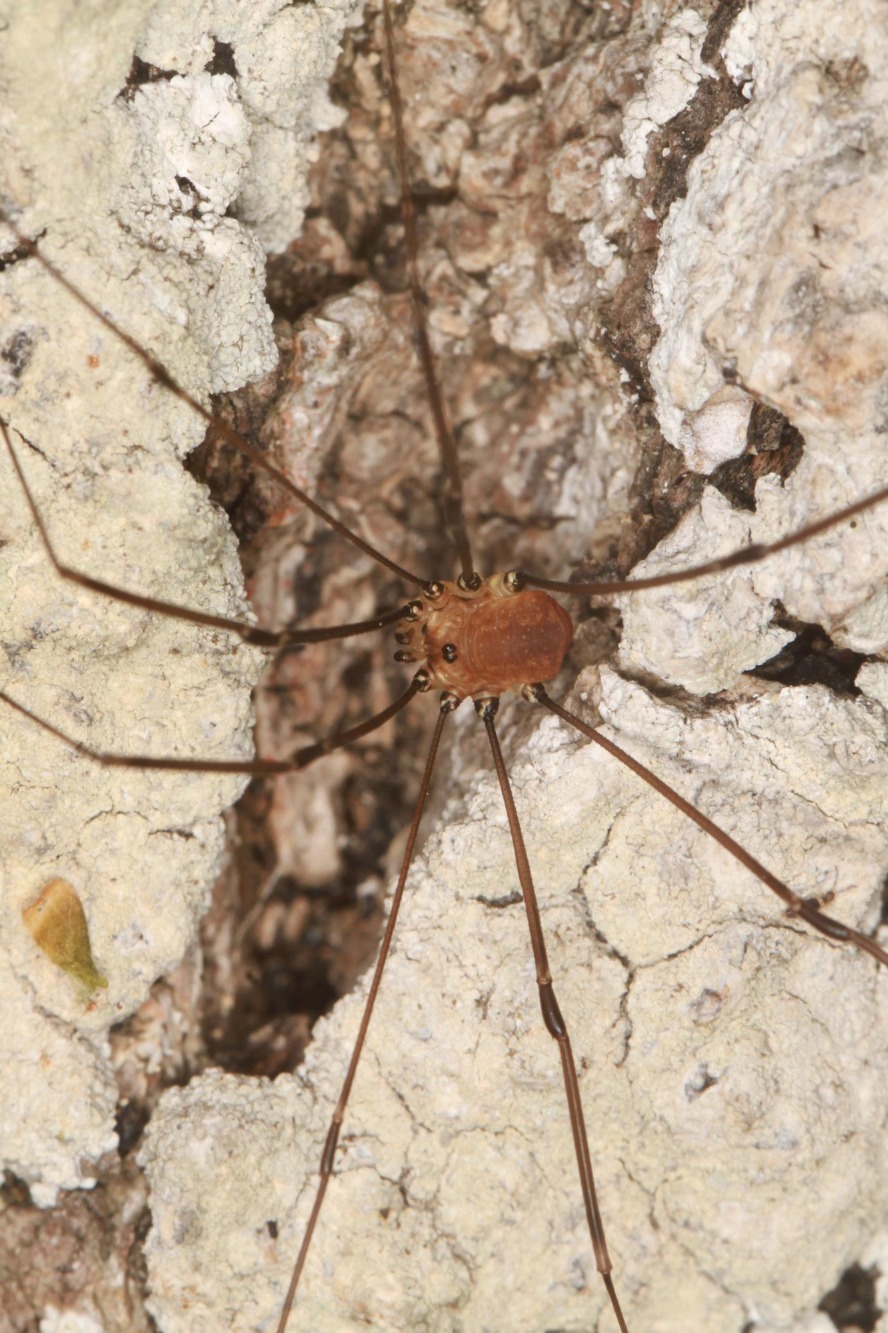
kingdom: Animalia
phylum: Arthropoda
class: Arachnida
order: Opiliones
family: Sclerosomatidae
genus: Leiobunum
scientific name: Leiobunum rotundum
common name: Rød langbensmejer
